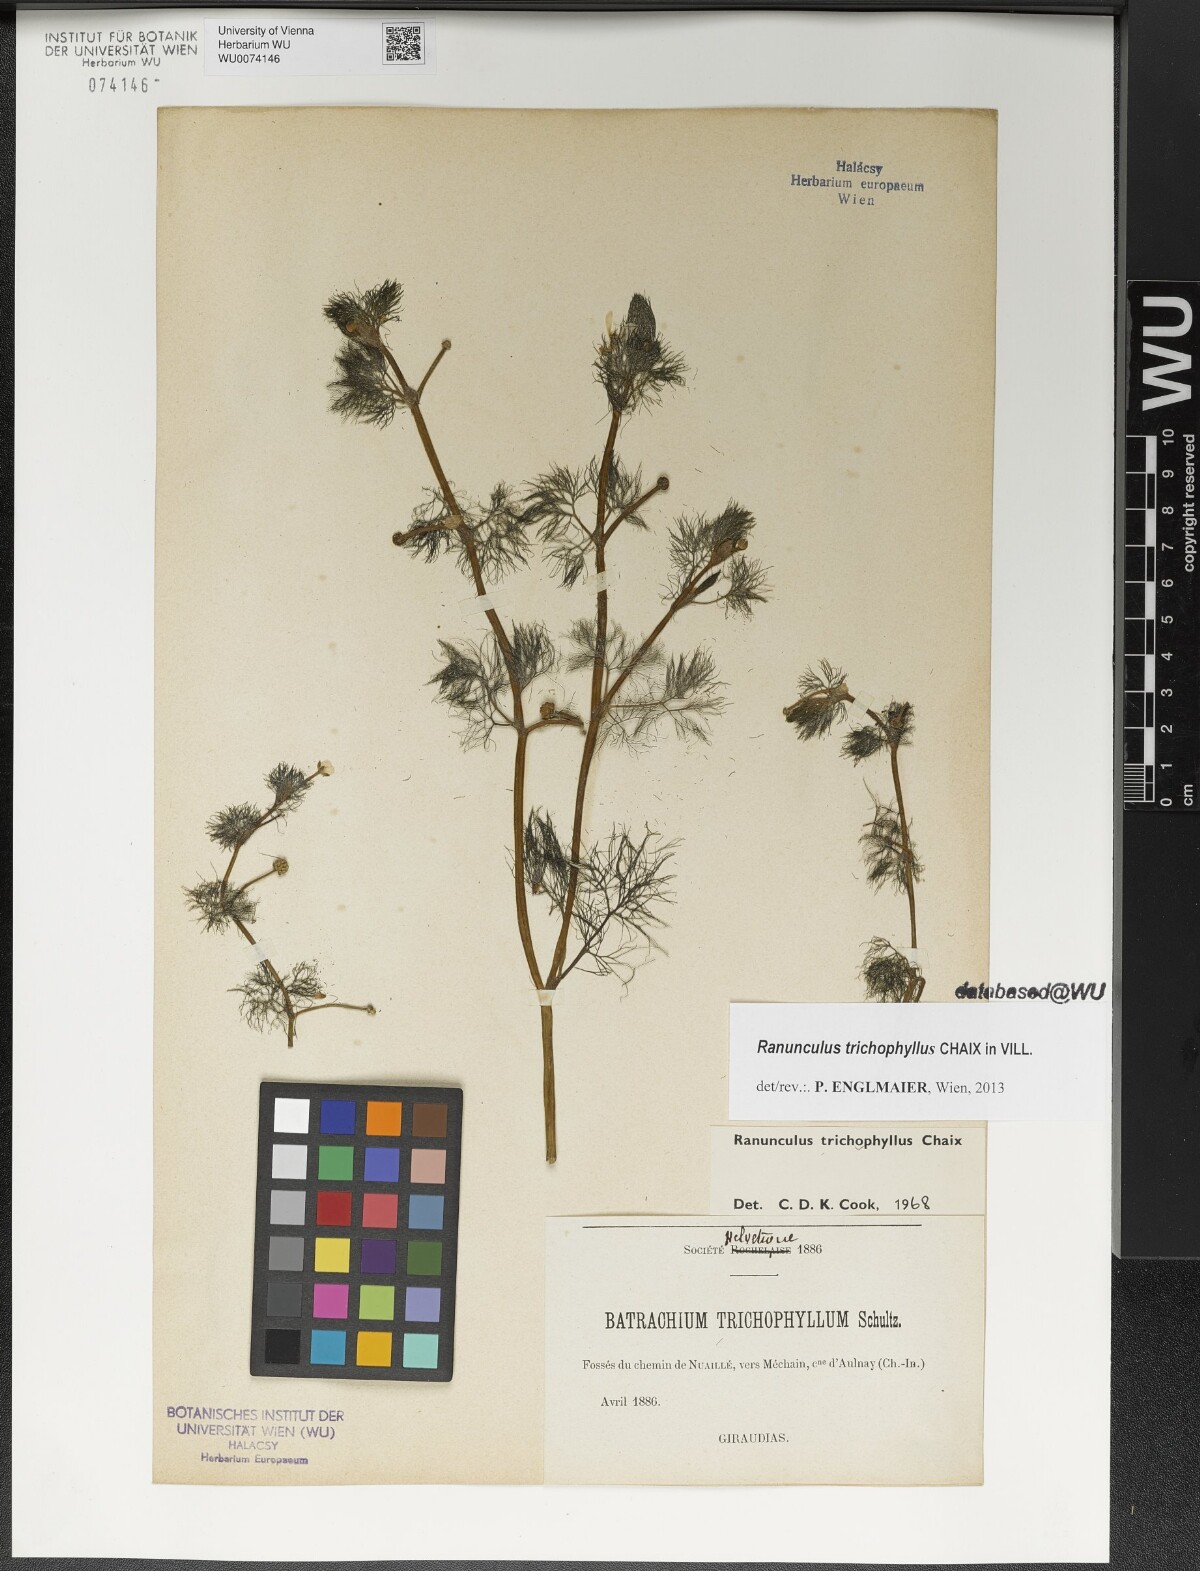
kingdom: Plantae
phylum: Tracheophyta
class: Magnoliopsida
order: Ranunculales
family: Ranunculaceae
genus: Ranunculus
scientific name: Ranunculus trichophyllus
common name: Thread-leaved water-crowfoot
